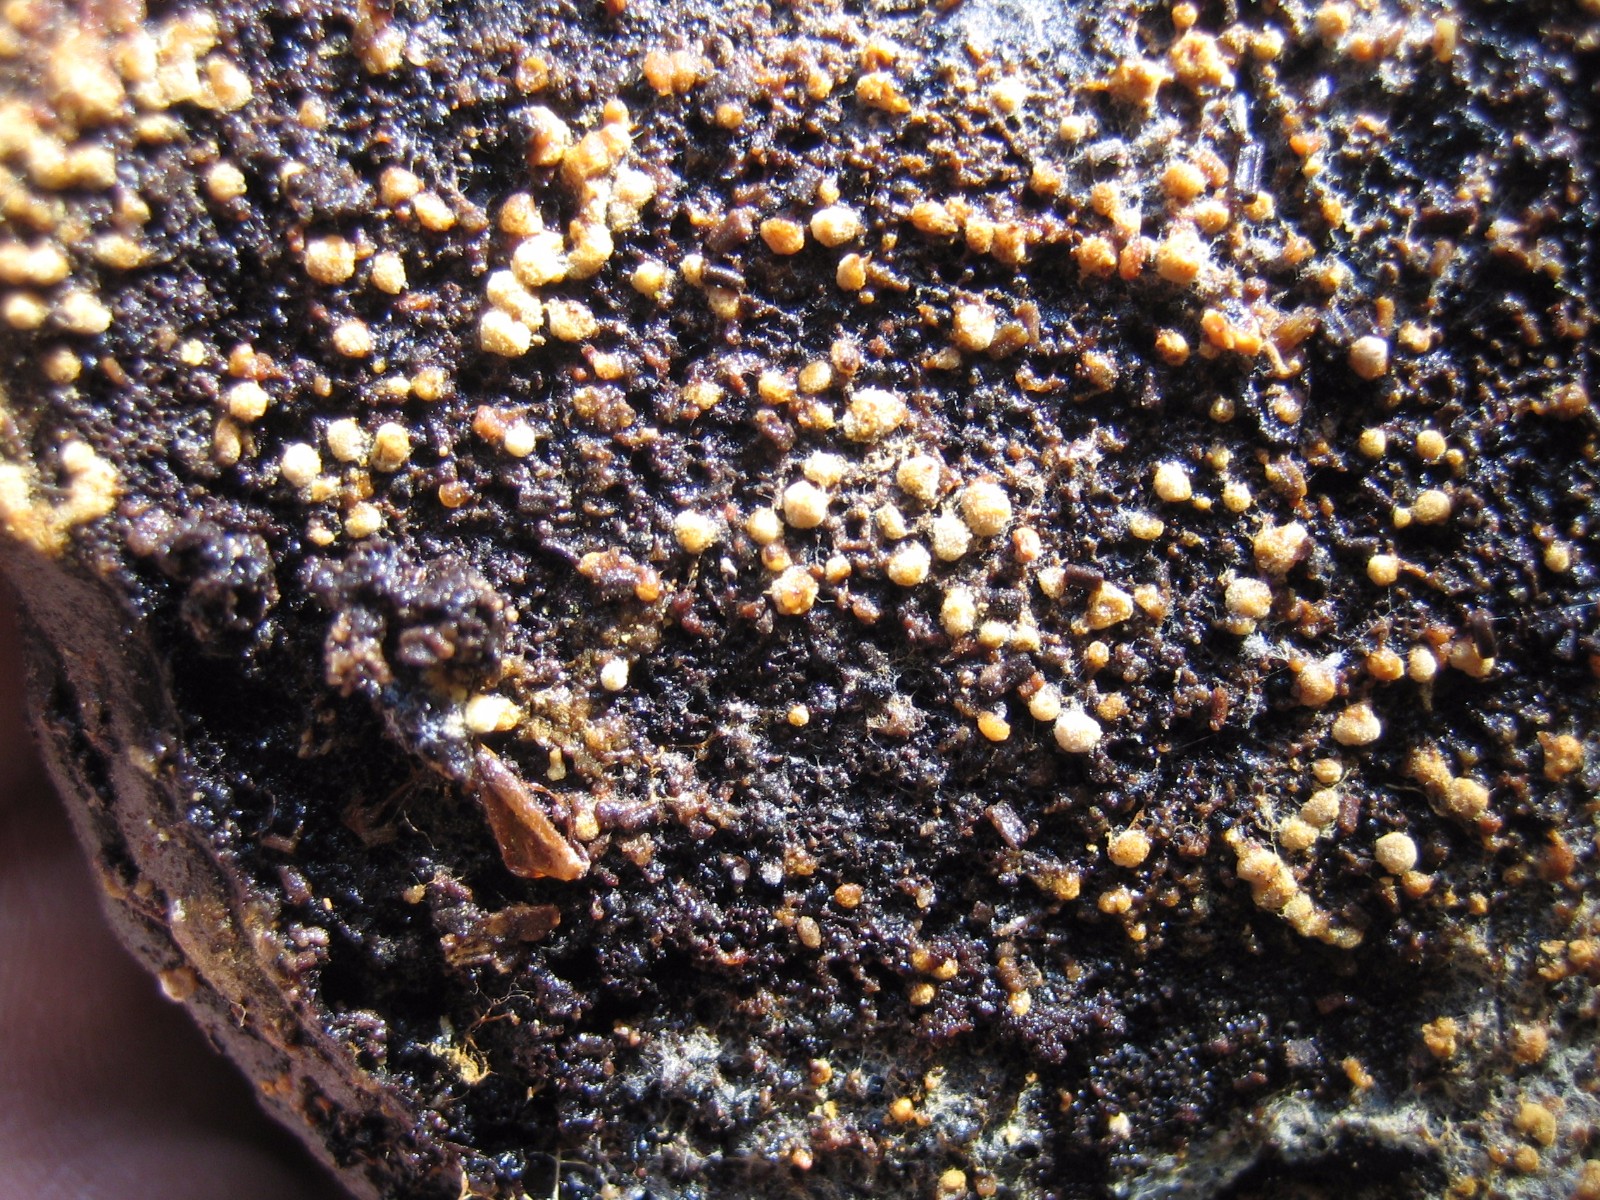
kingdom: Fungi
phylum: Basidiomycota
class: Agaricomycetes
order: Cantharellales
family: Botryobasidiaceae
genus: Botryobasidium
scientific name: Botryobasidium aureum
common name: gylden spindhinde
